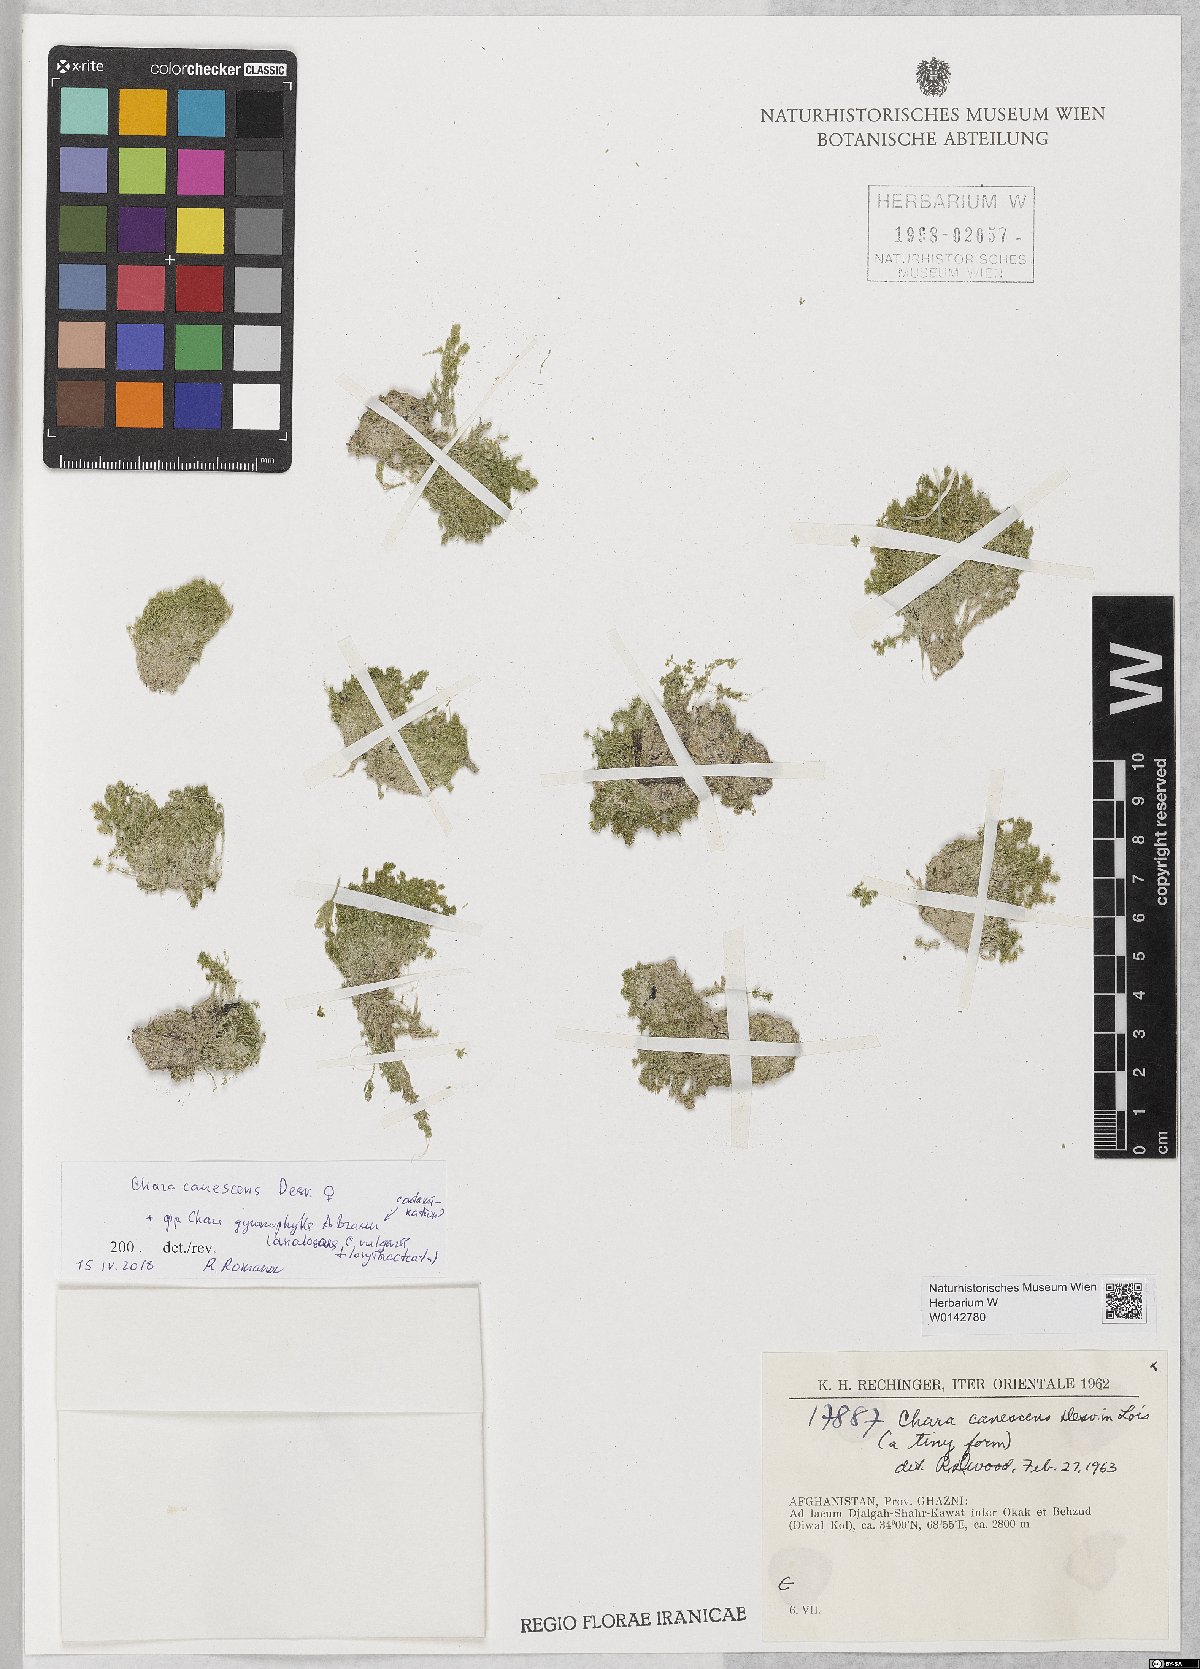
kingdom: Plantae
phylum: Charophyta
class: Charophyceae
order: Charales
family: Characeae
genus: Chara
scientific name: Chara canescens
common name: Bearded stonewort
